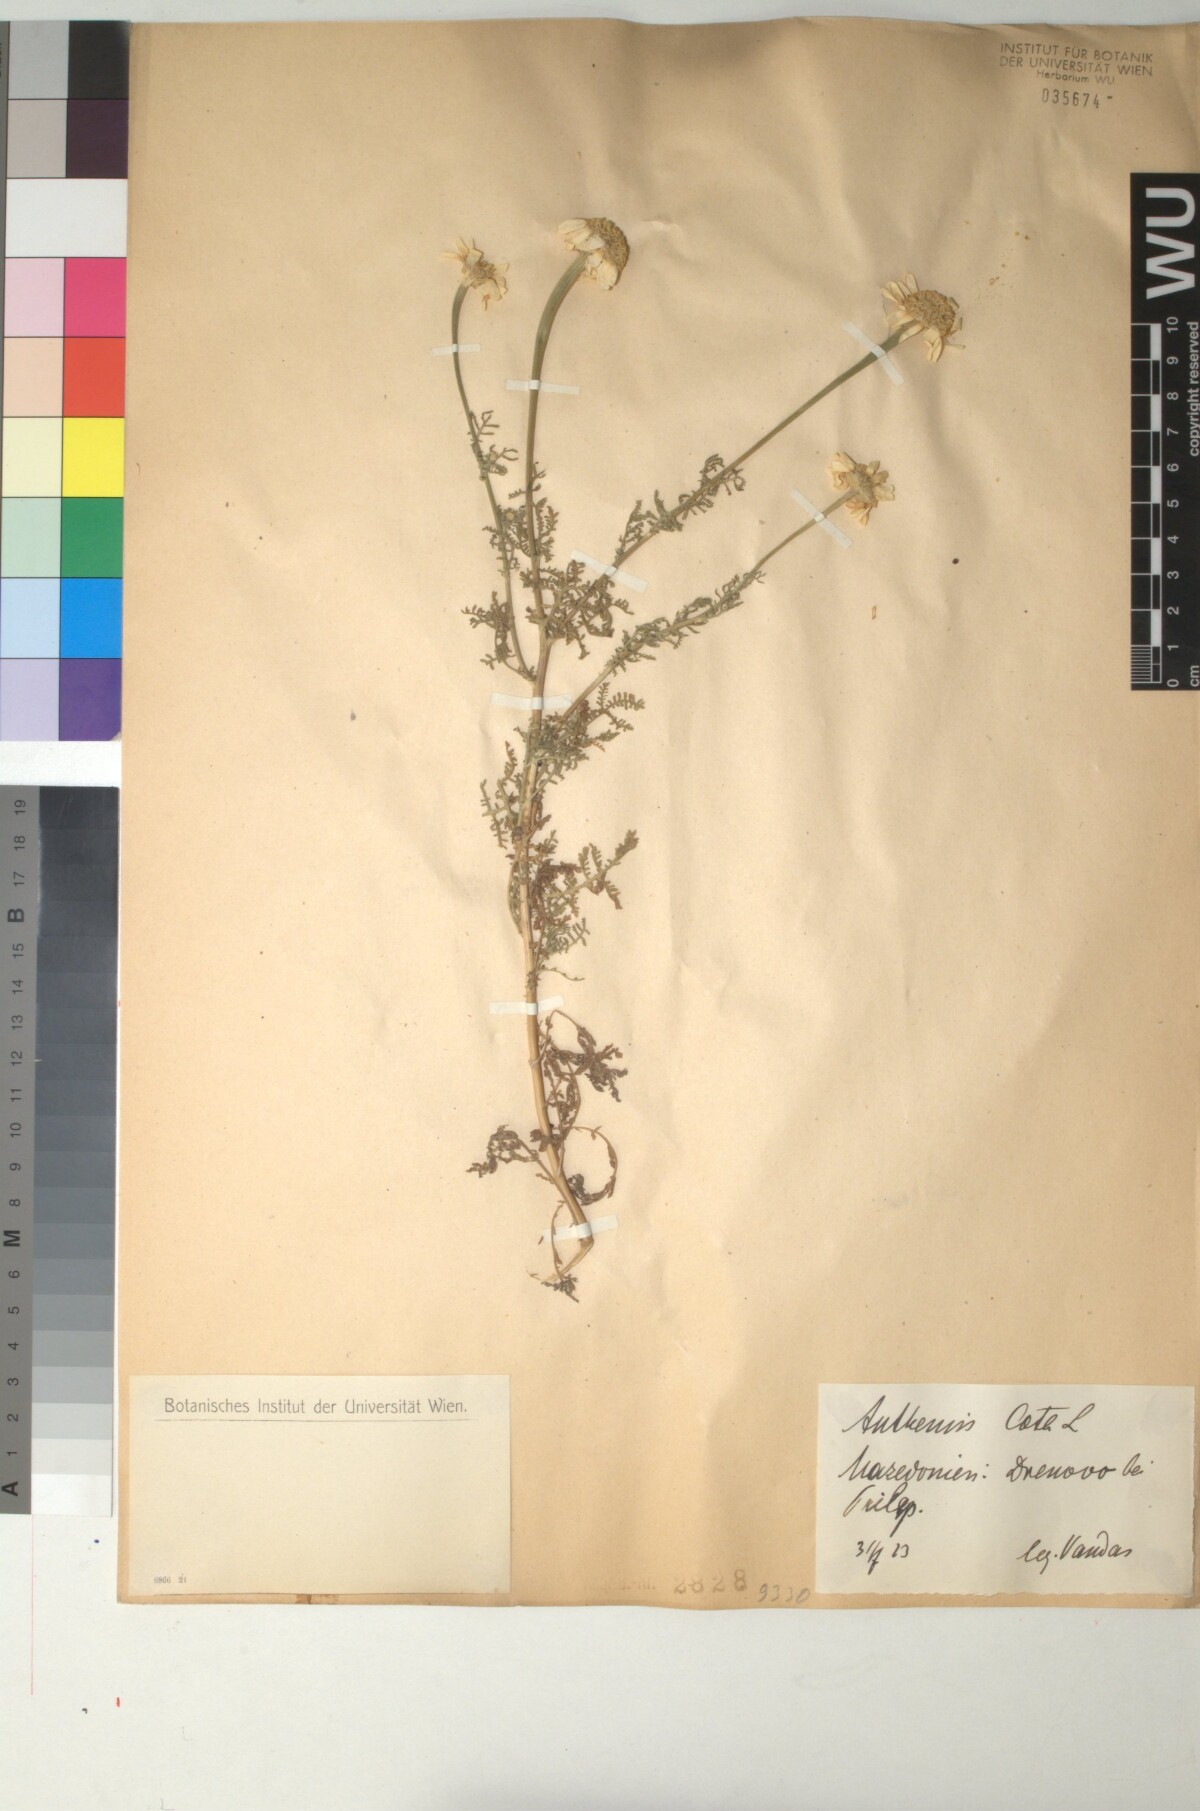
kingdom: Plantae
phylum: Tracheophyta
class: Magnoliopsida
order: Asterales
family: Asteraceae
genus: Cota
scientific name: Cota altissima
